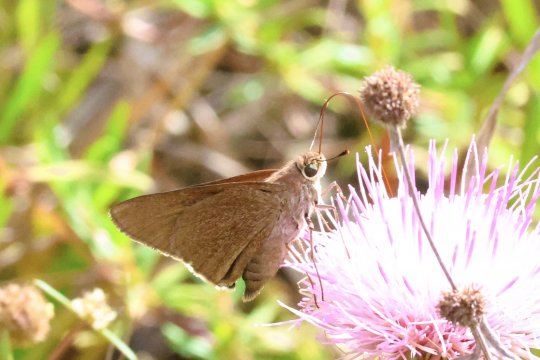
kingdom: Animalia
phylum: Arthropoda
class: Insecta
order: Lepidoptera
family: Hesperiidae
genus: Asbolis
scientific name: Asbolis capucinus
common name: Monk Skipper
